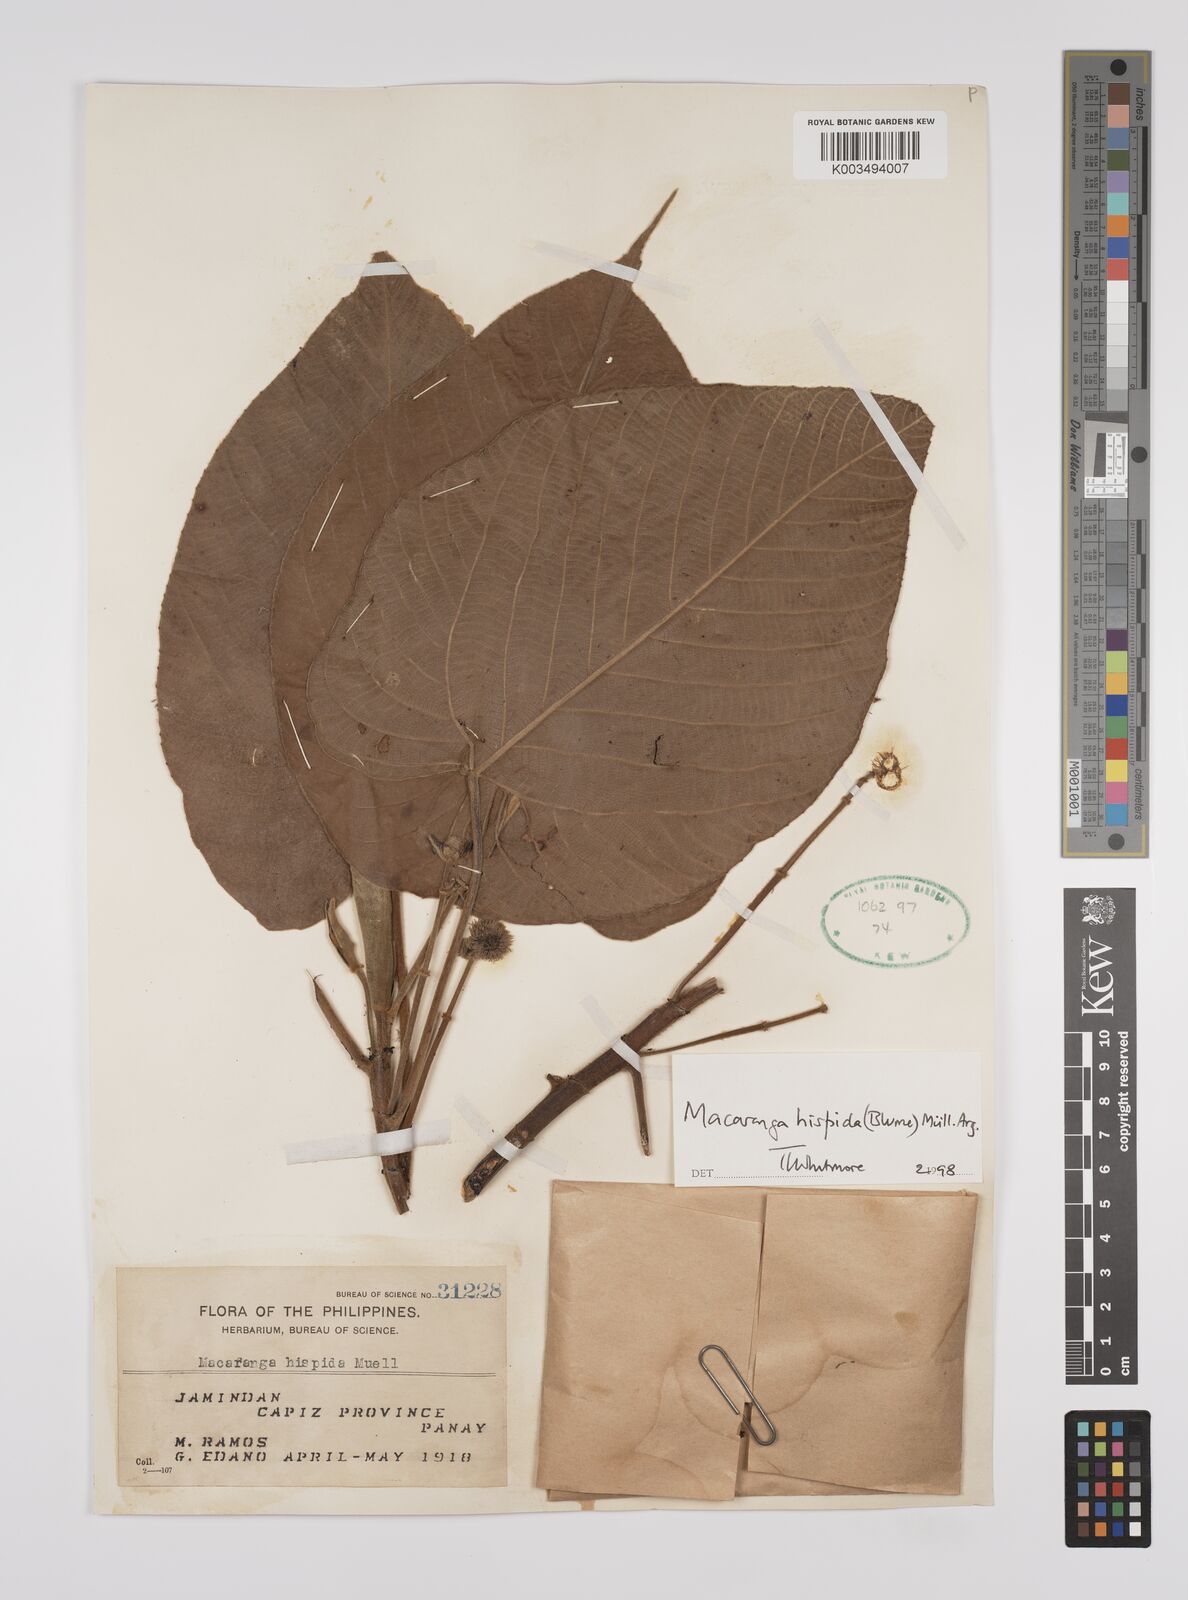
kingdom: Plantae
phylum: Tracheophyta
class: Magnoliopsida
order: Malpighiales
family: Euphorbiaceae
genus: Macaranga
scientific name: Macaranga hispida
